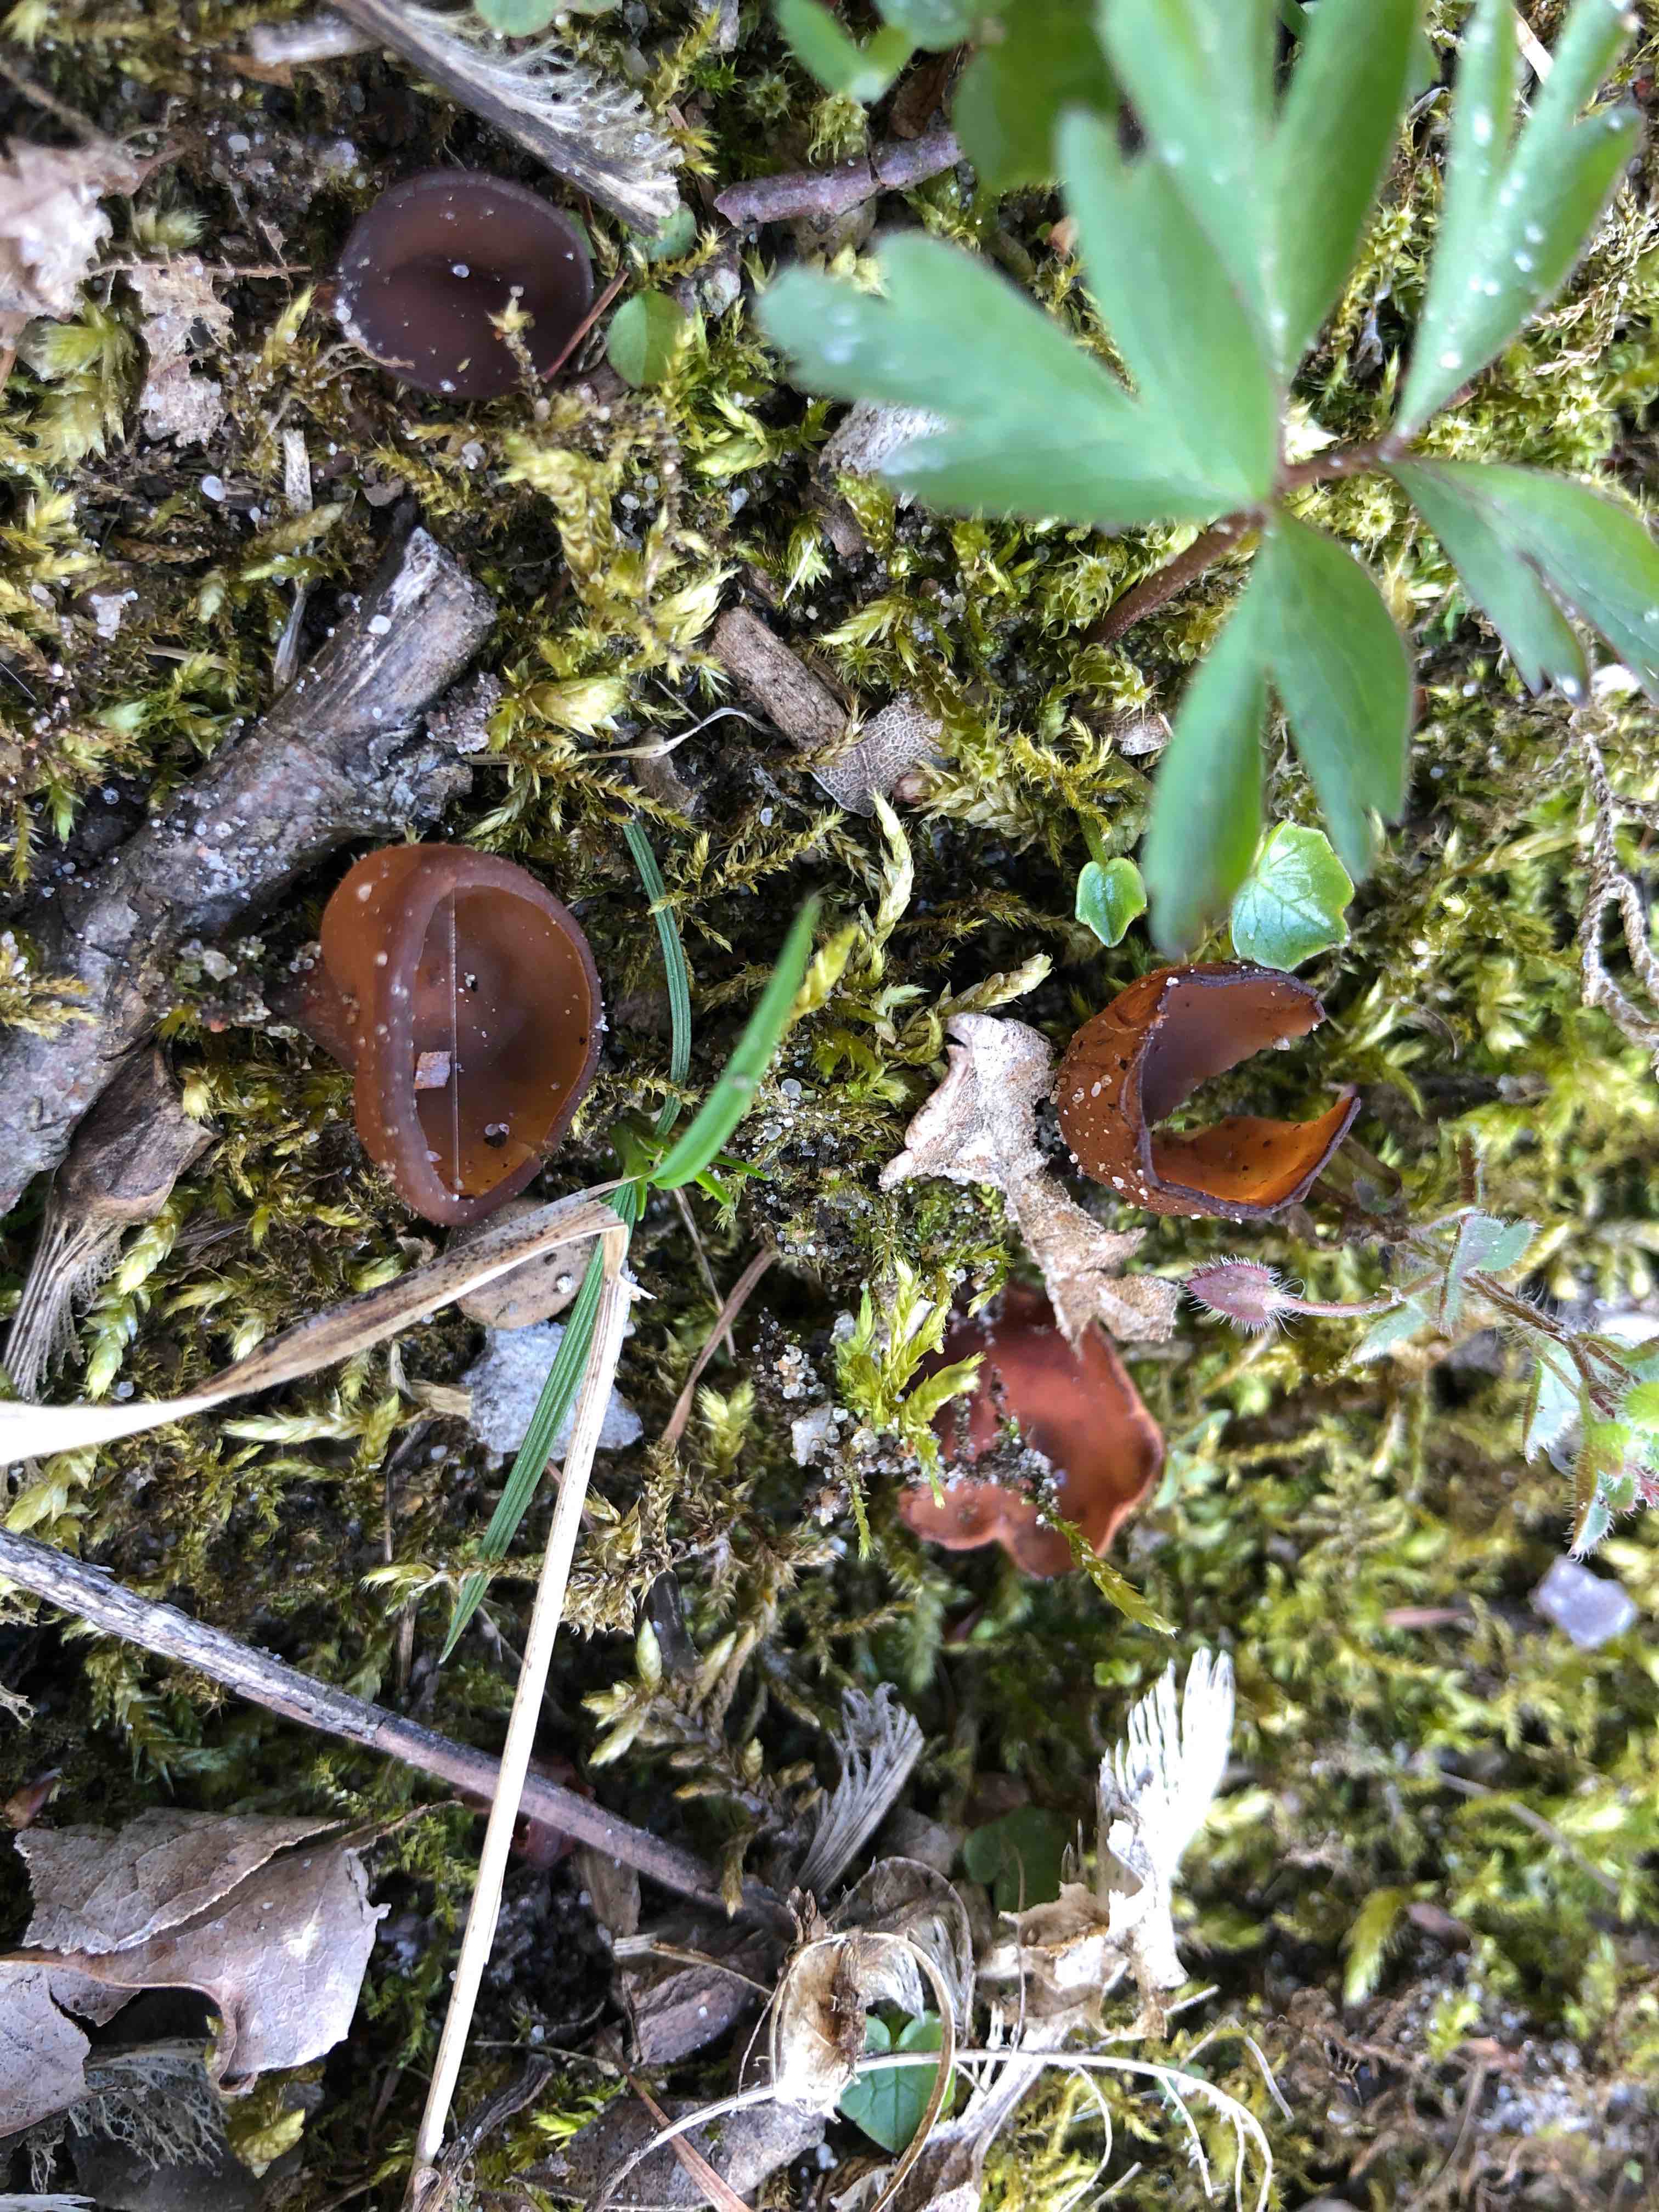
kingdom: Fungi
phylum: Ascomycota
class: Leotiomycetes
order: Helotiales
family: Sclerotiniaceae
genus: Dumontinia
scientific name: Dumontinia tuberosa
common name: anemone-knoldskive
